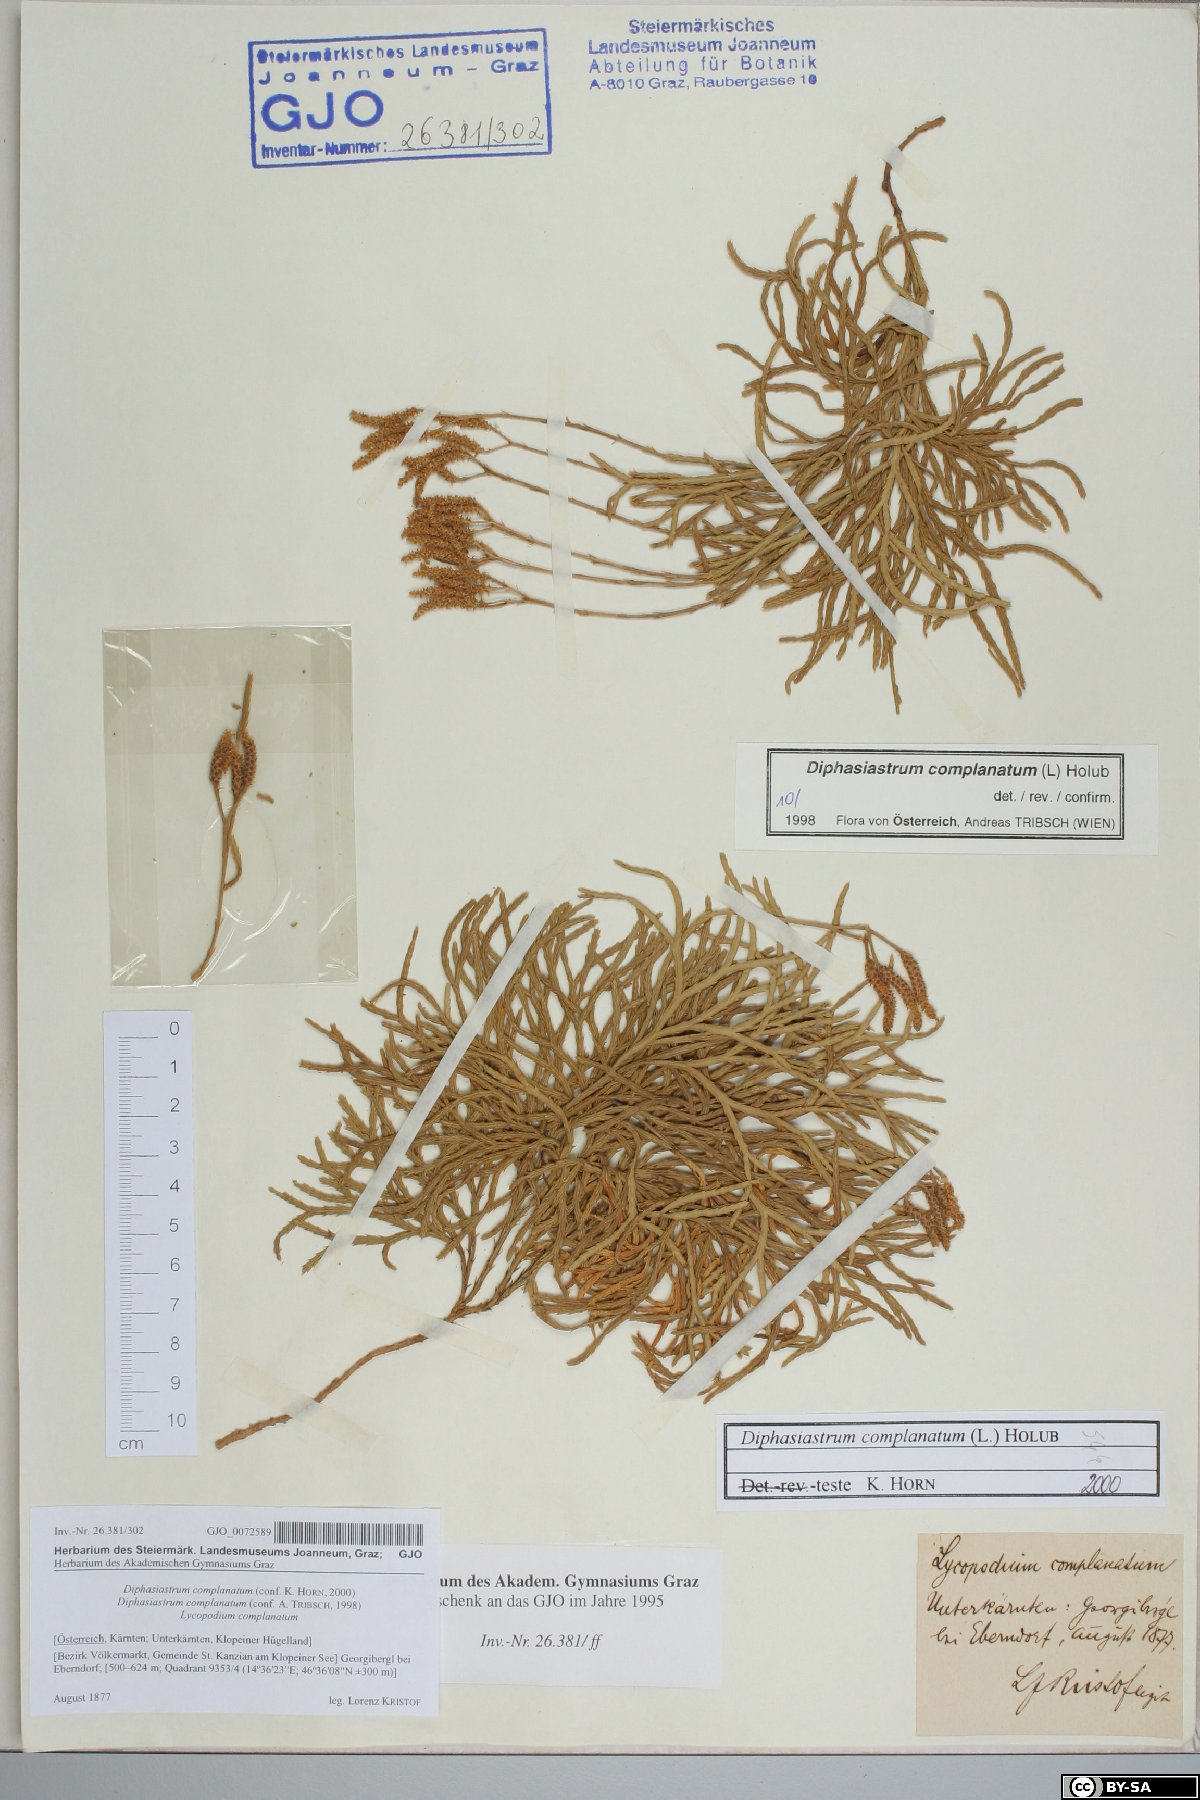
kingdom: Plantae
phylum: Tracheophyta
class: Lycopodiopsida
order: Lycopodiales
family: Lycopodiaceae
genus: Diphasiastrum
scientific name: Diphasiastrum complanatum
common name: Northern running-pine
